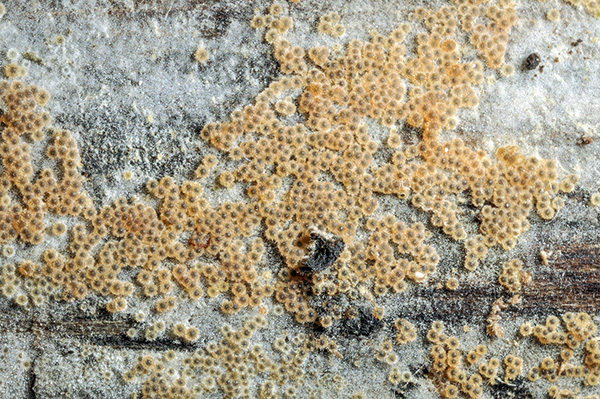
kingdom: Fungi
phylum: Ascomycota
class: Sordariomycetes
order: Hypocreales
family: Nectriaceae
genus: Nectria
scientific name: Nectria vulpina
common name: ræve-gyldenkerne
